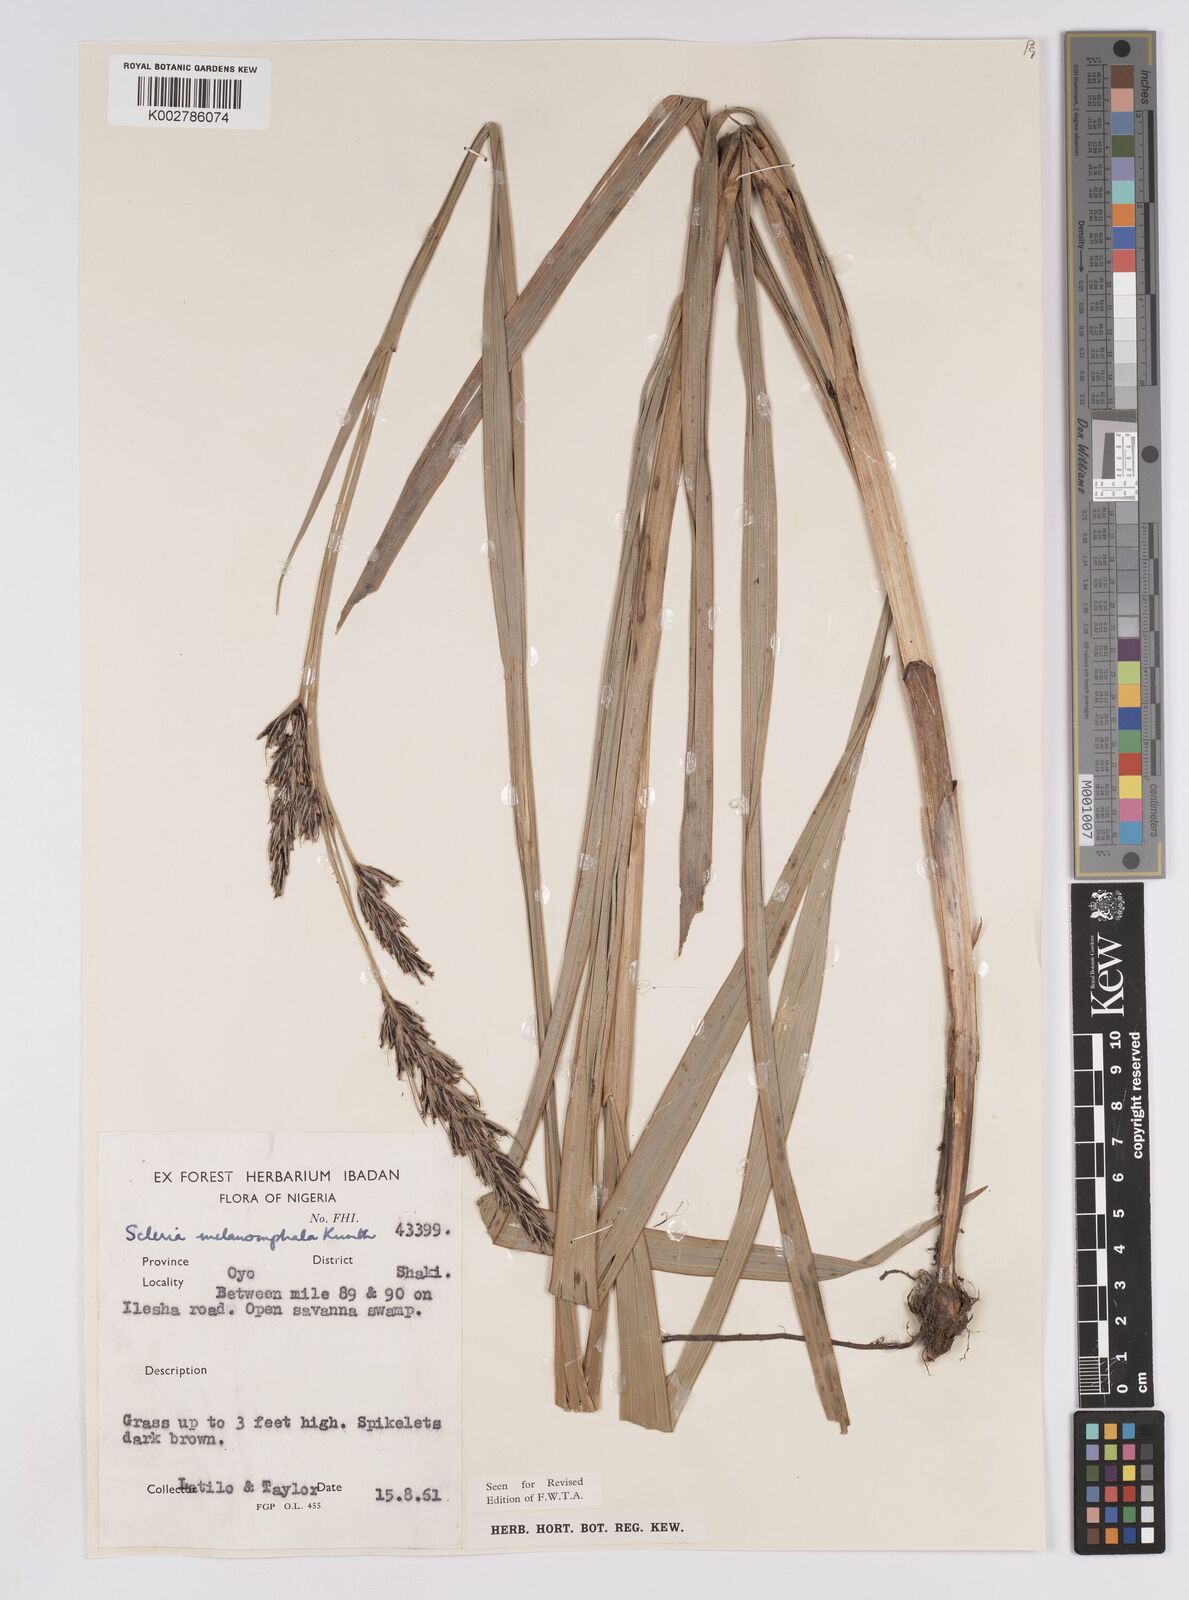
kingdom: Plantae
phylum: Tracheophyta
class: Liliopsida
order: Poales
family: Cyperaceae
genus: Scleria
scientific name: Scleria melanomphala
